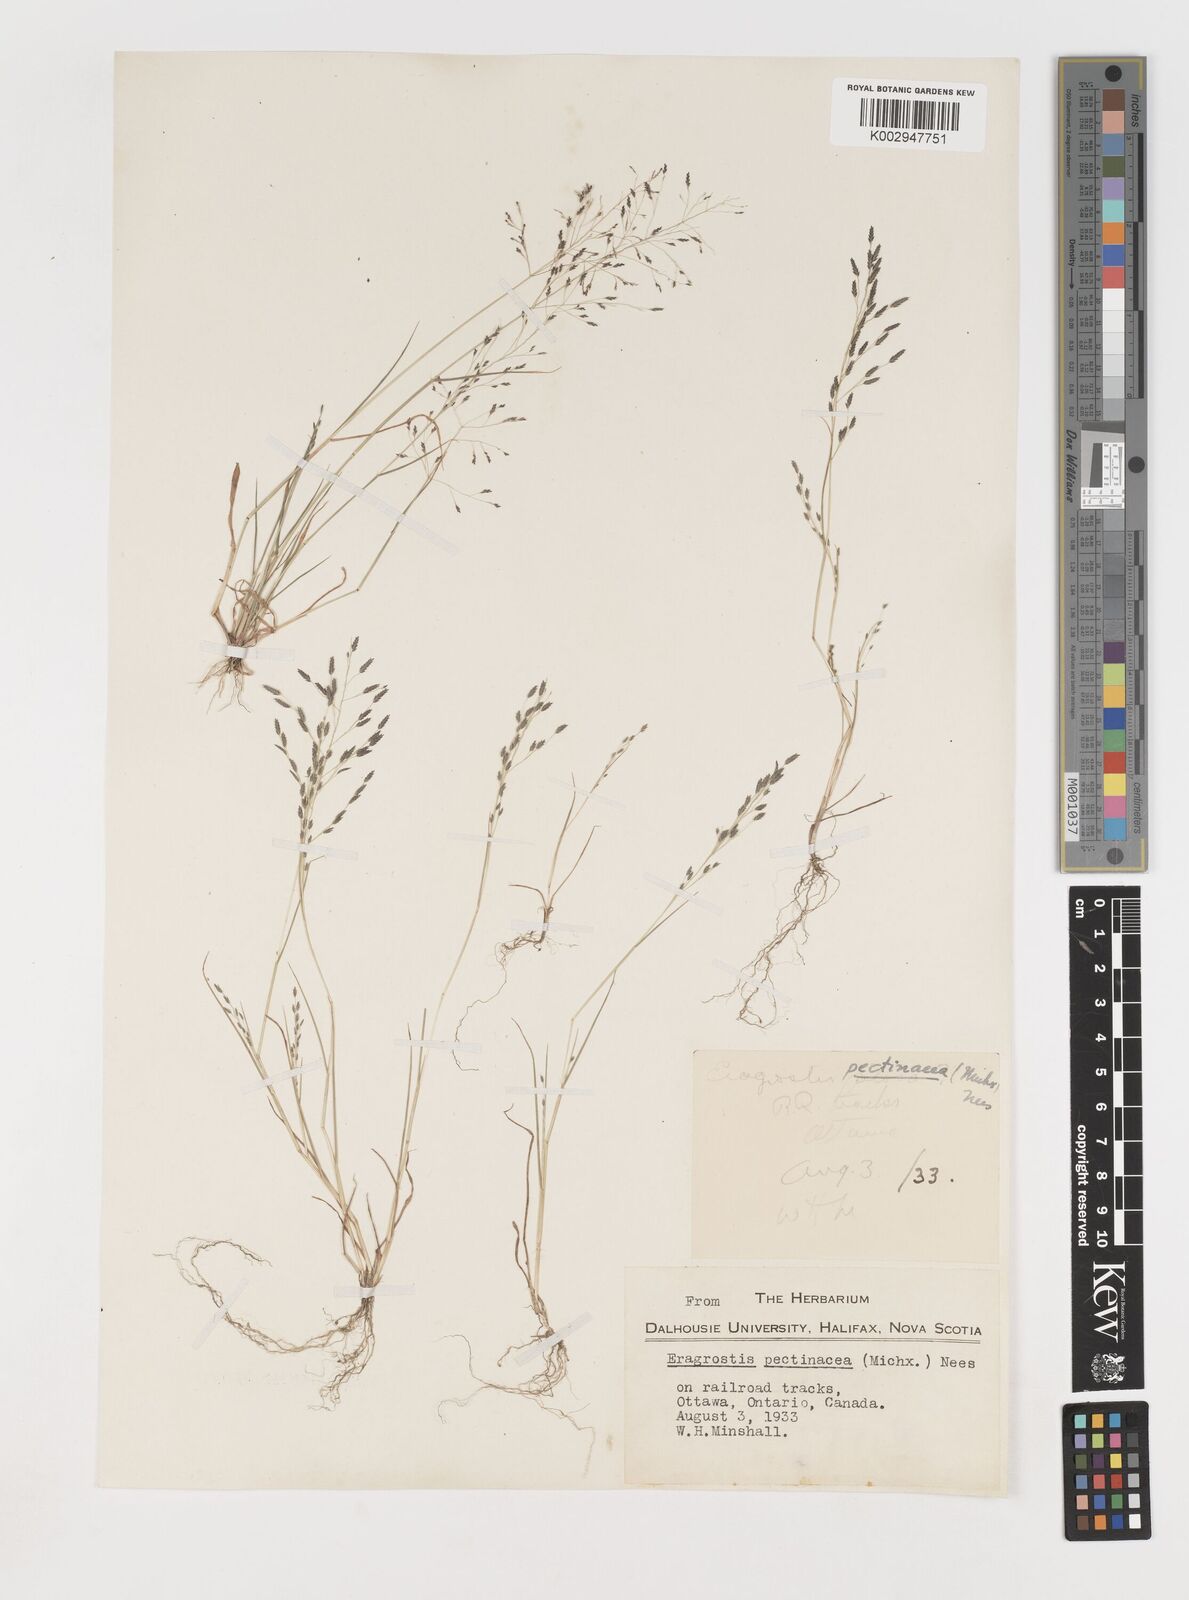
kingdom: Plantae
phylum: Tracheophyta
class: Liliopsida
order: Poales
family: Poaceae
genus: Eragrostis
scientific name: Eragrostis pectinacea
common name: Tufted lovegrass
